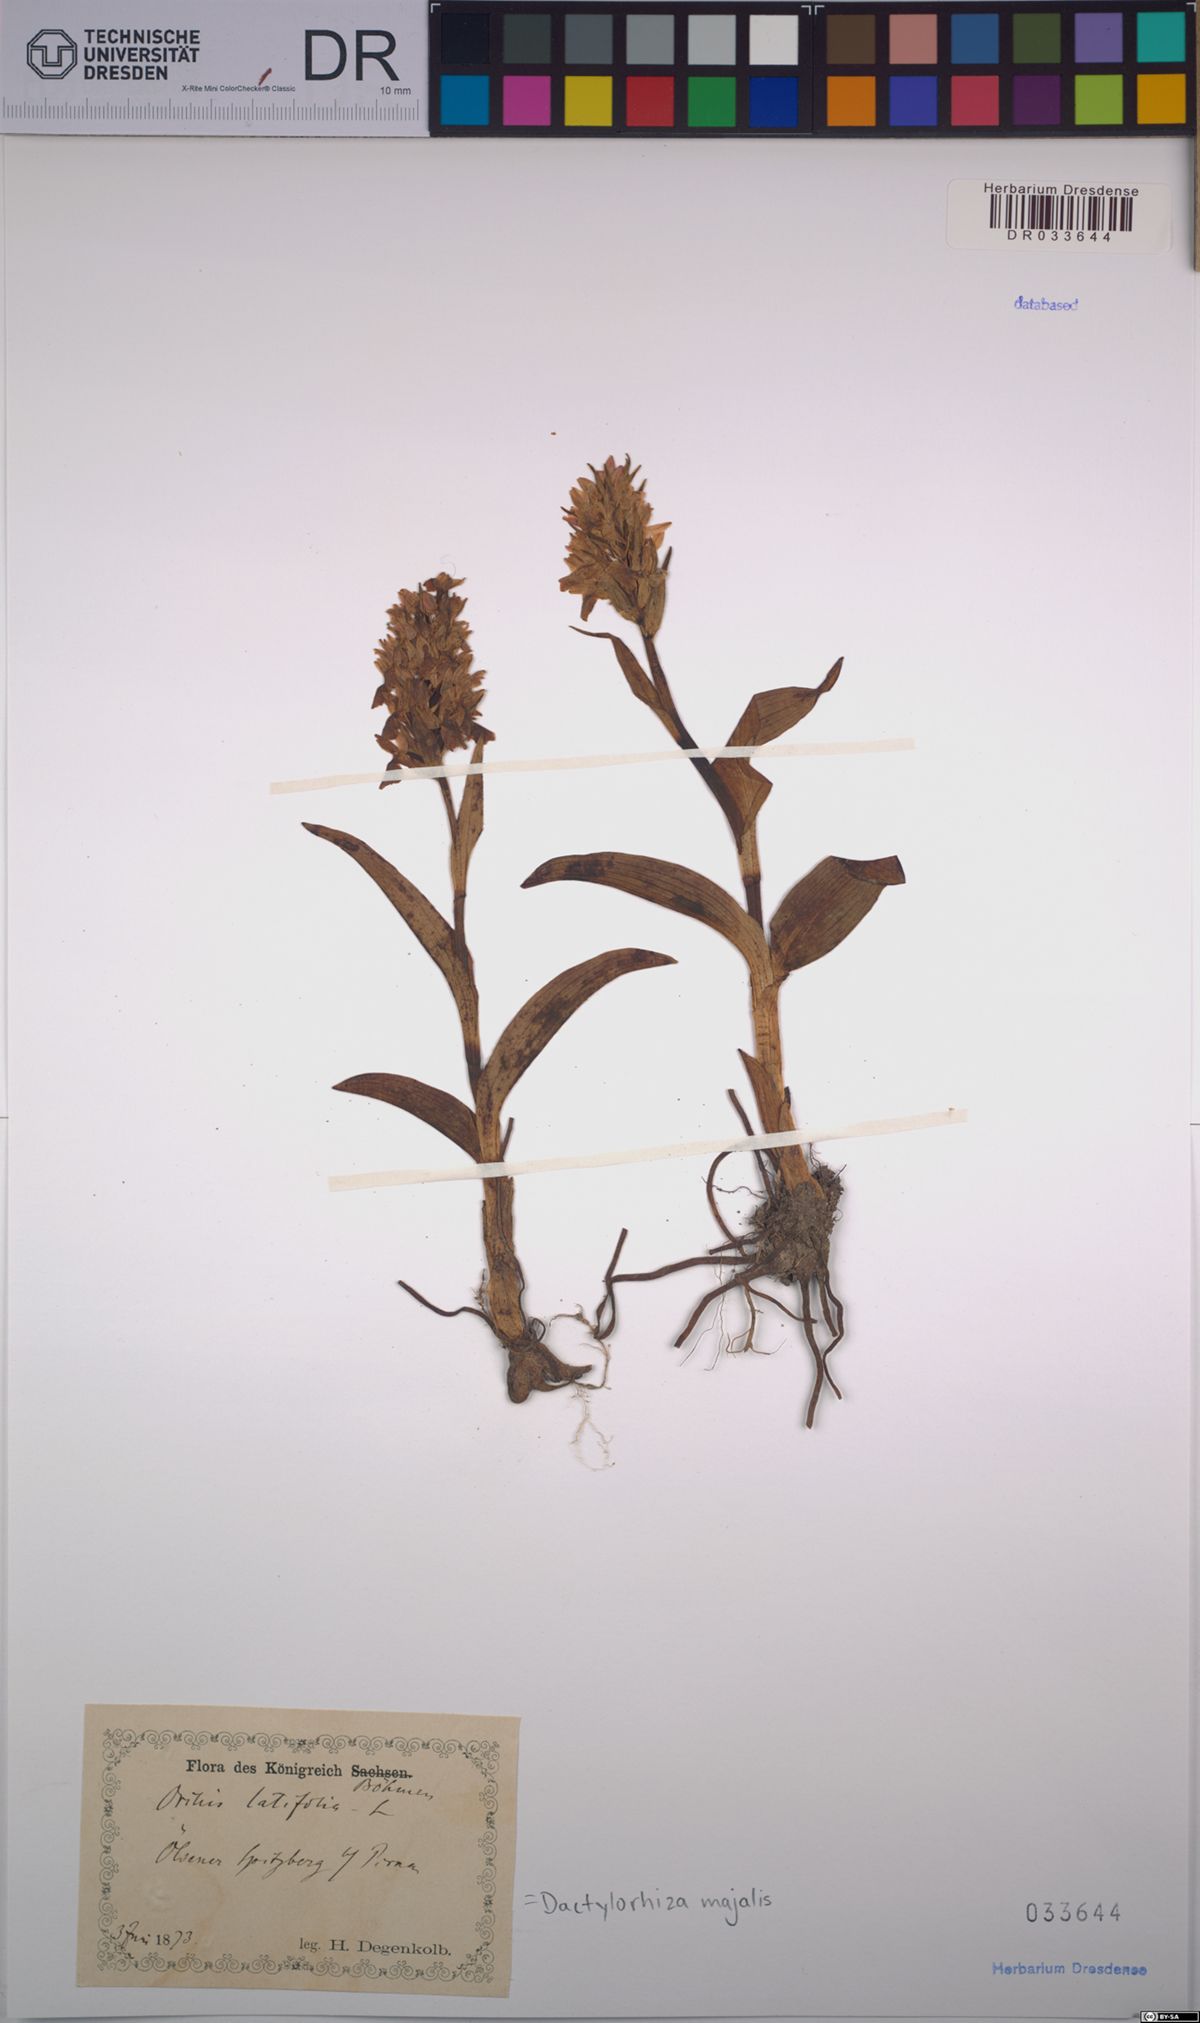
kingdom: Plantae
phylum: Tracheophyta
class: Liliopsida
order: Asparagales
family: Orchidaceae
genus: Dactylorhiza
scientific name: Dactylorhiza majalis
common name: Marsh orchid
